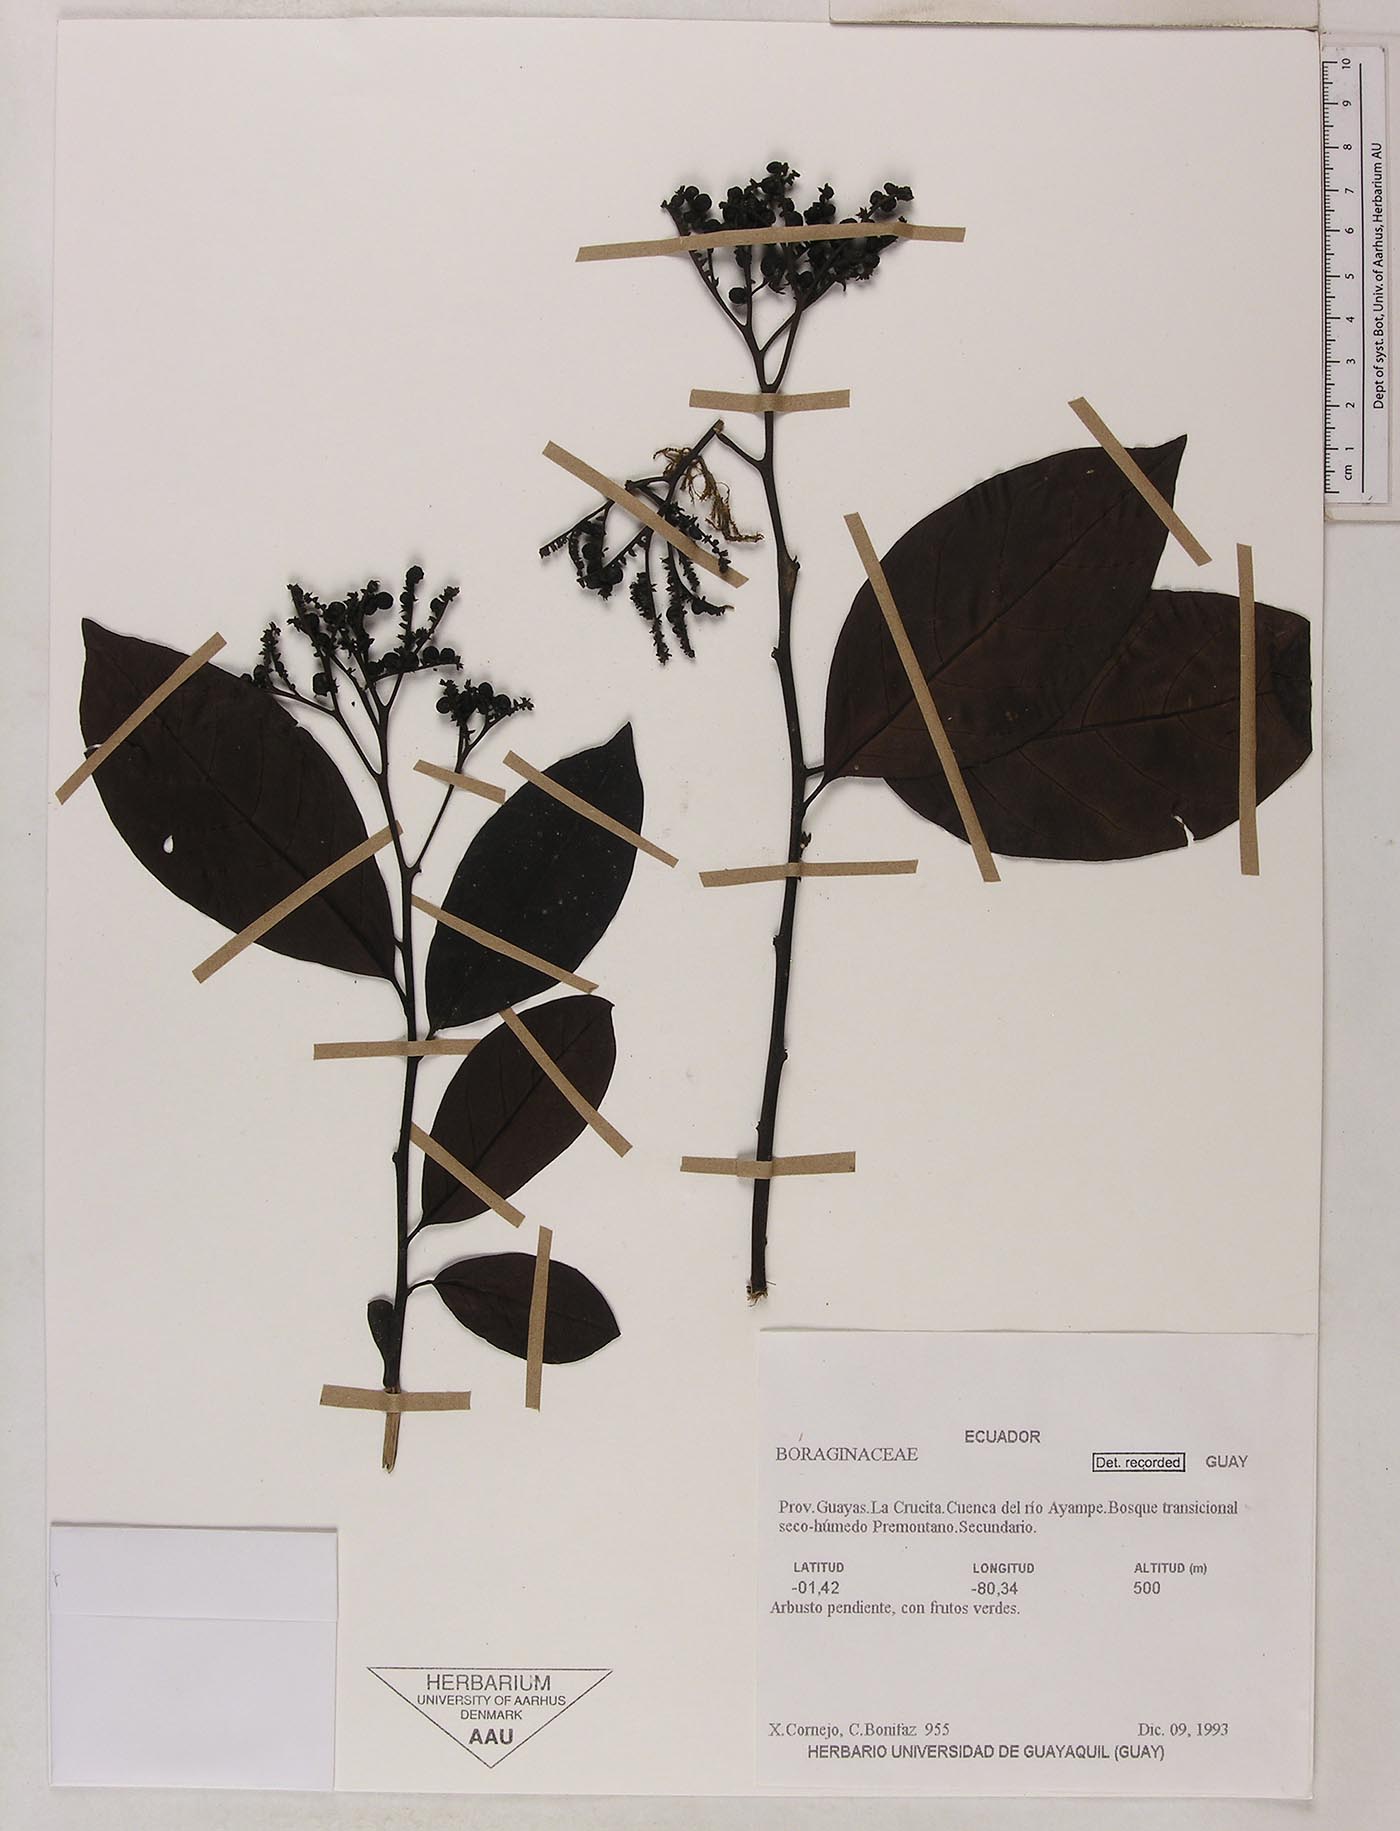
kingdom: Plantae
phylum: Tracheophyta
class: Magnoliopsida
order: Boraginales
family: Heliotropiaceae
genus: Heliotropium
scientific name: Heliotropium verdcourtii
